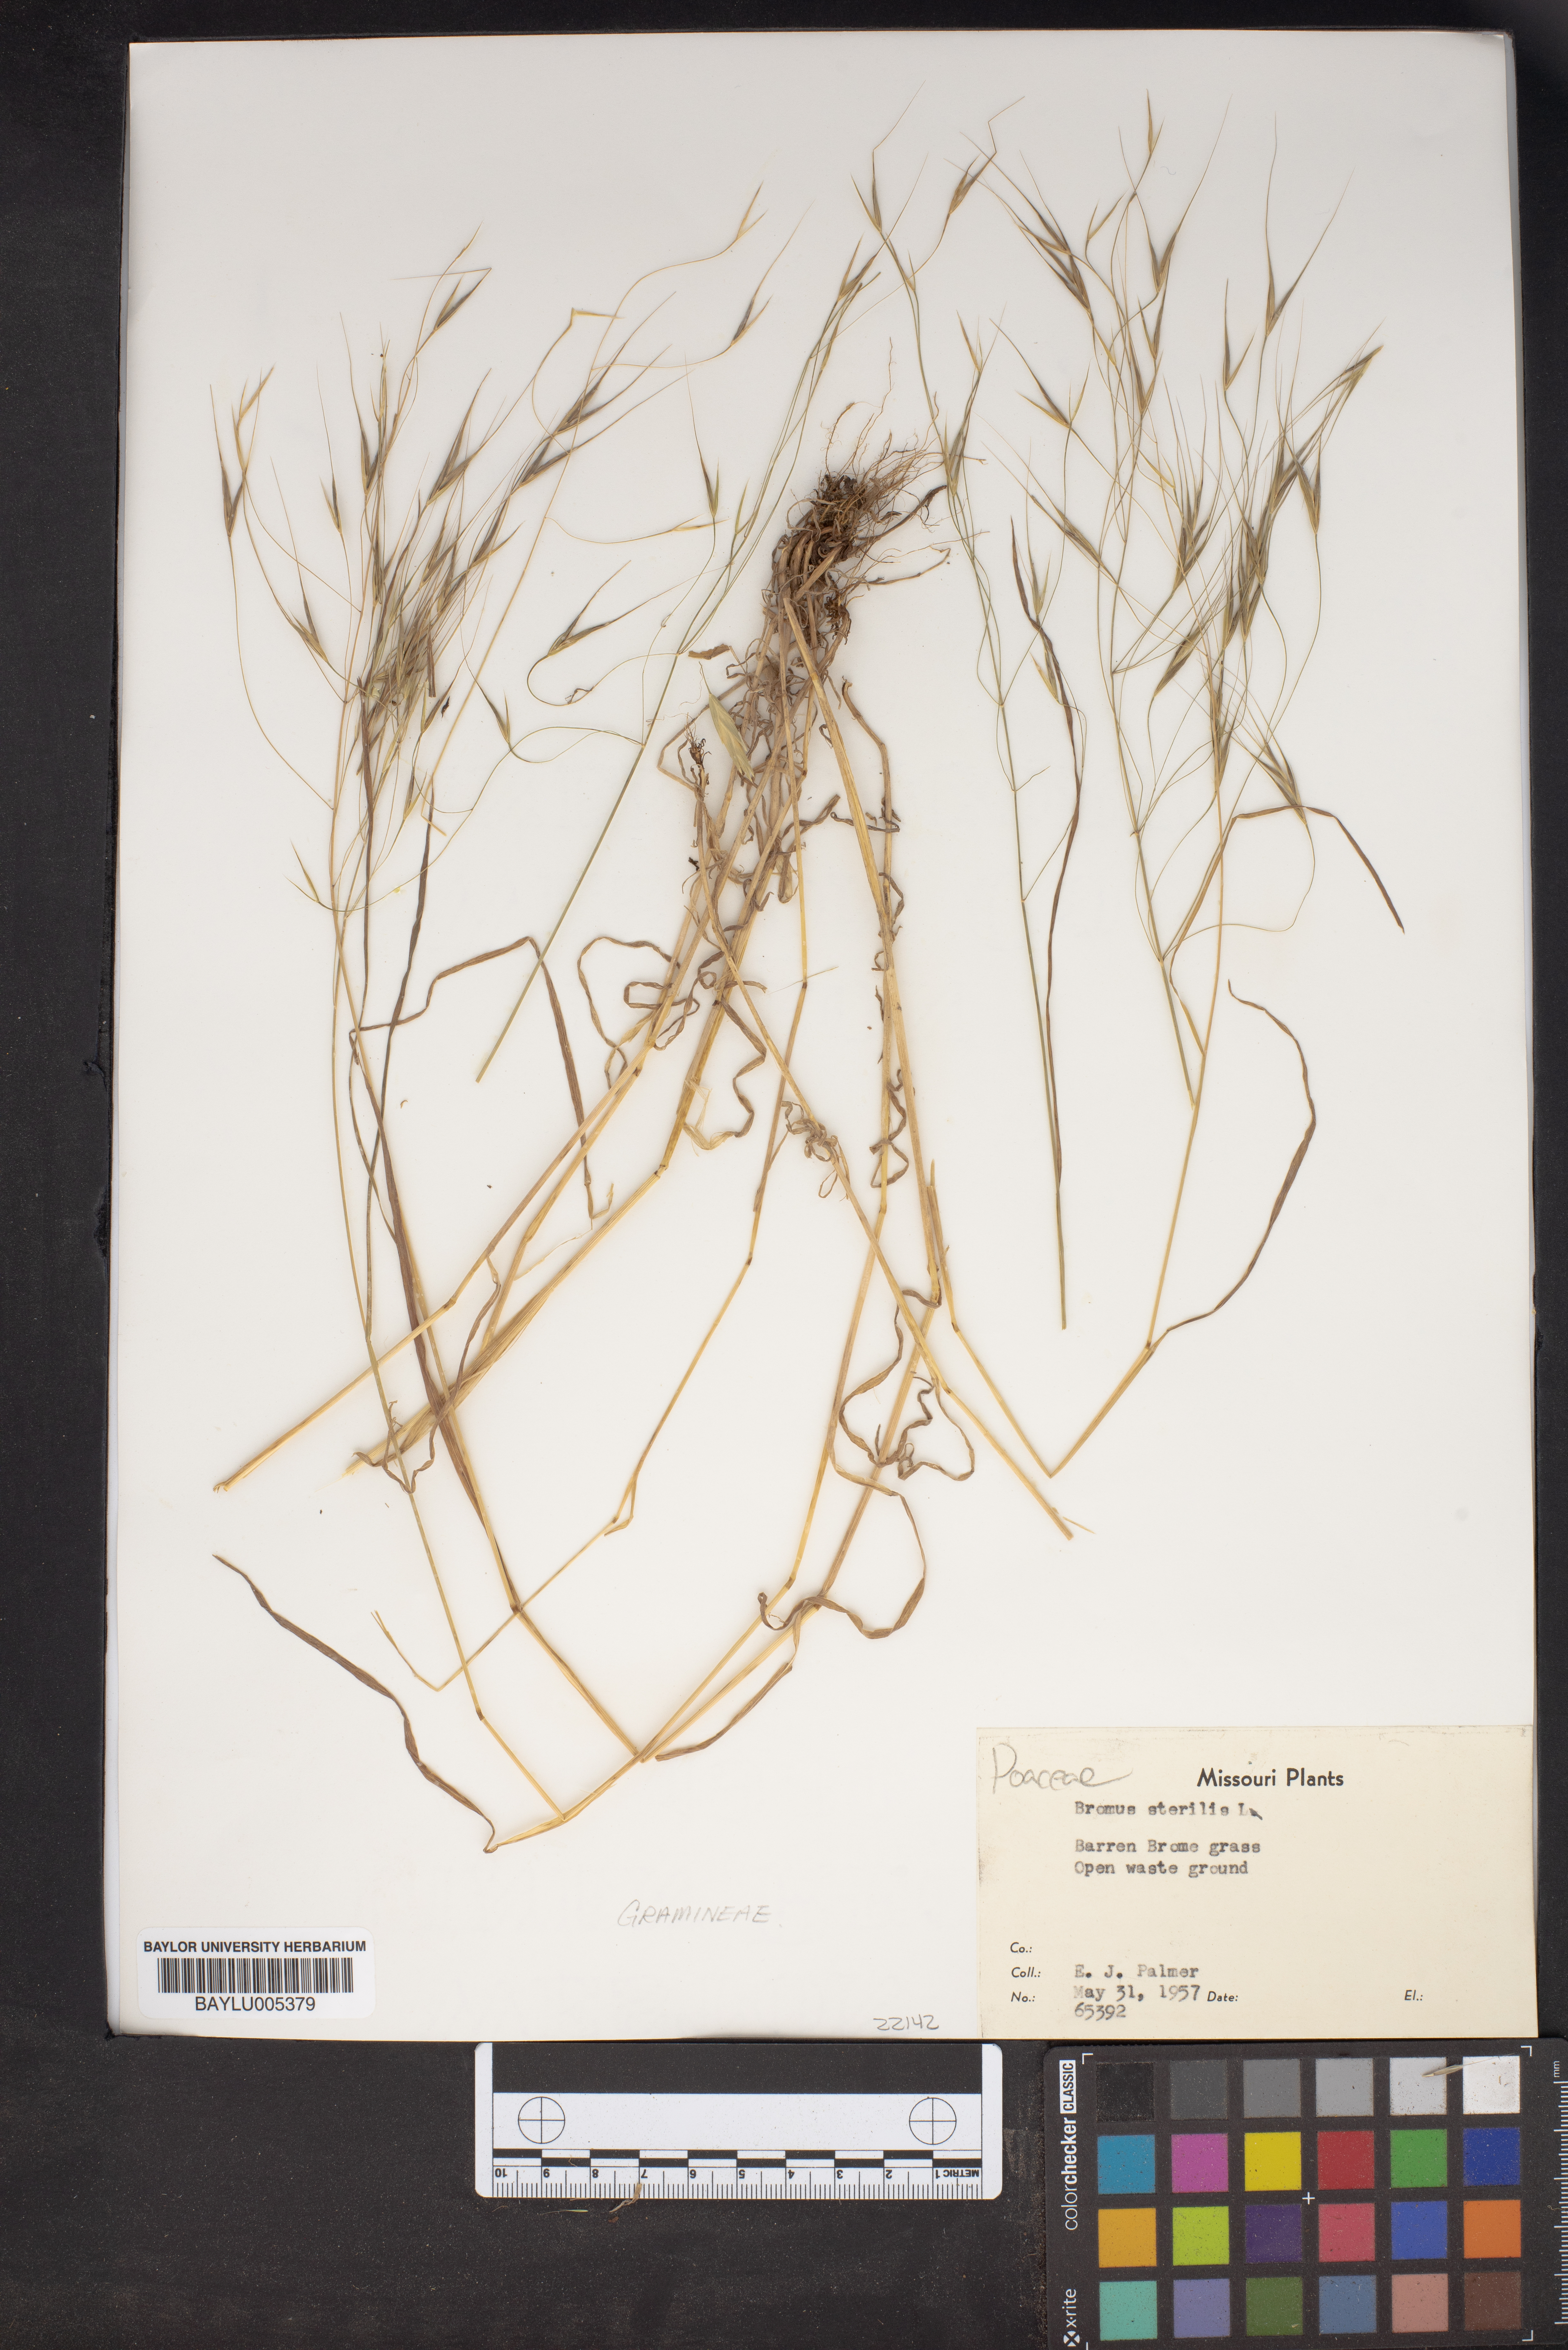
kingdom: Plantae
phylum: Tracheophyta
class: Liliopsida
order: Poales
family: Poaceae
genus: Bromus
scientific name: Bromus sterilis
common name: Poverty brome
